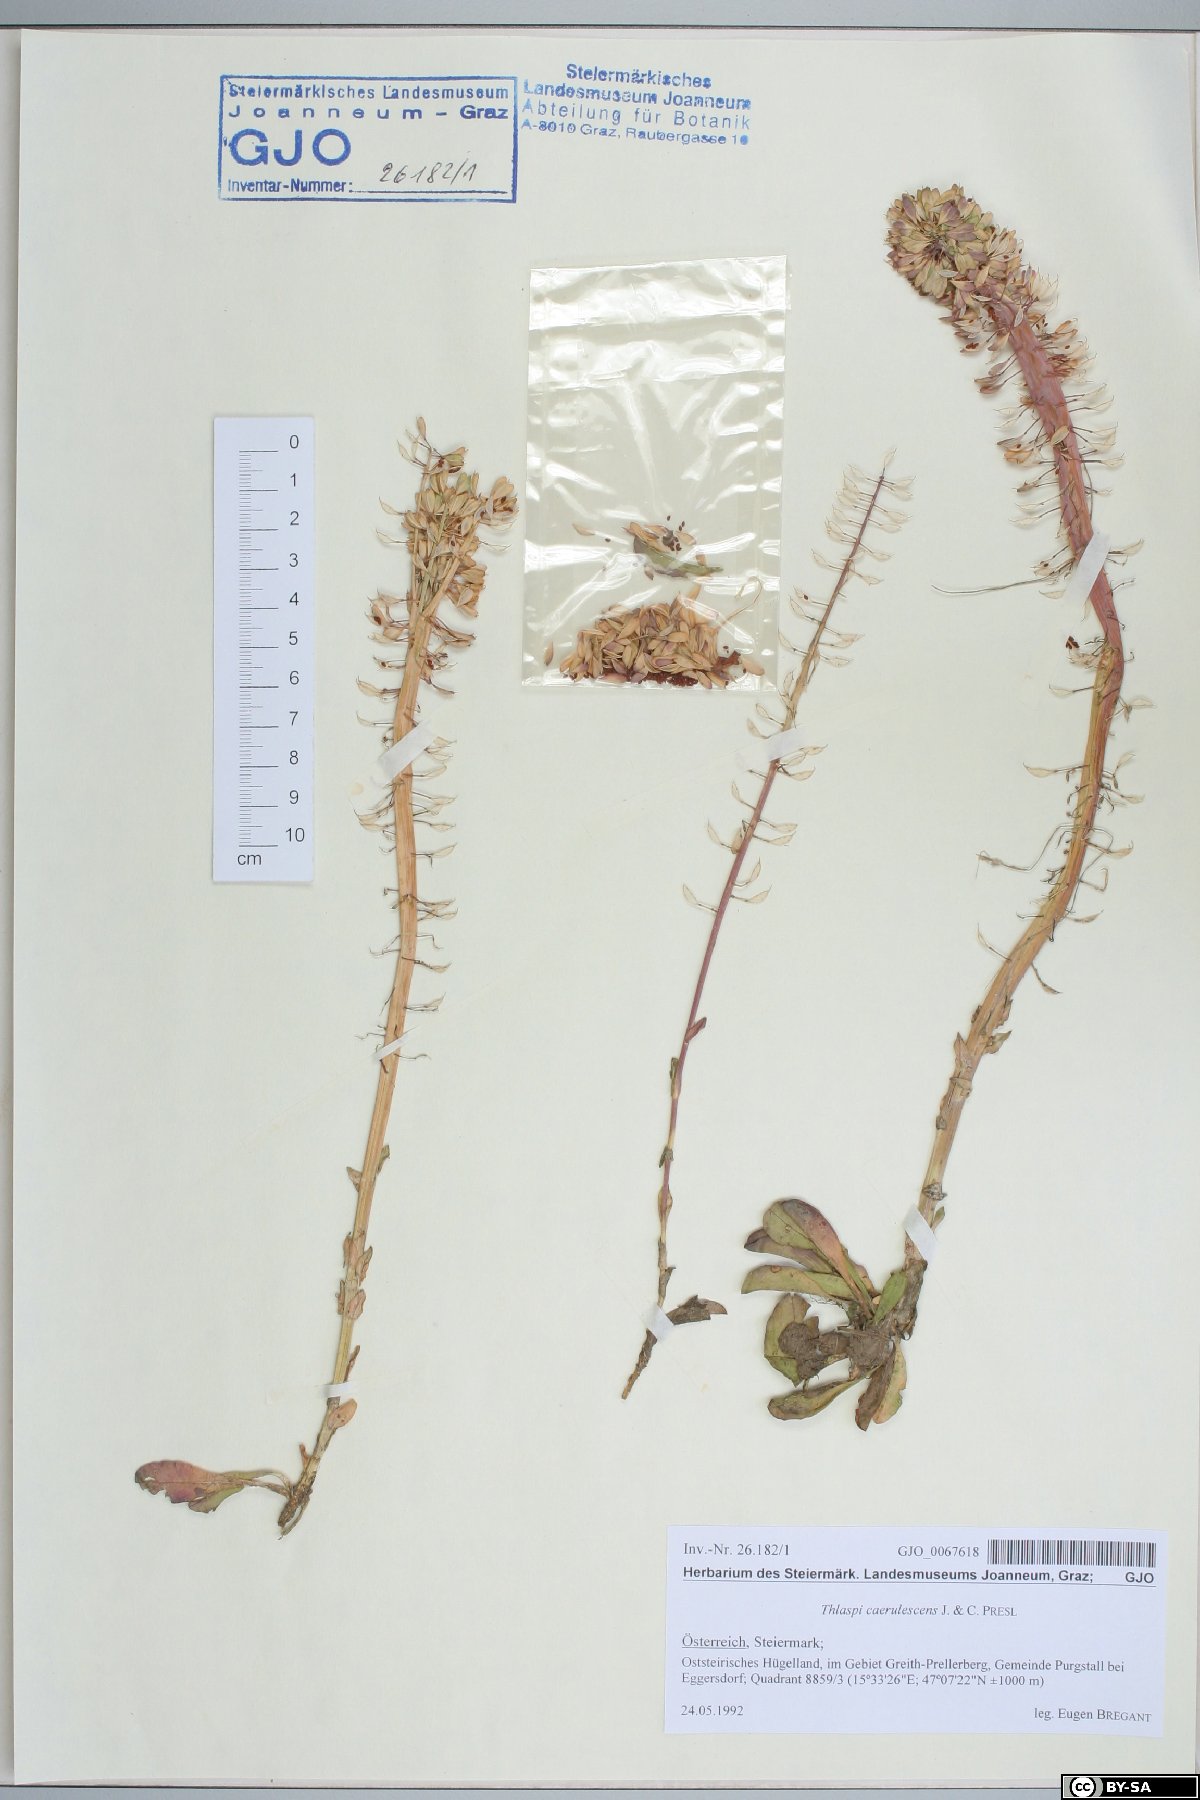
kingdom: Plantae
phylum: Tracheophyta
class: Magnoliopsida
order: Brassicales
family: Brassicaceae
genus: Noccaea
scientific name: Noccaea caerulescens
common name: Alpine pennycress
